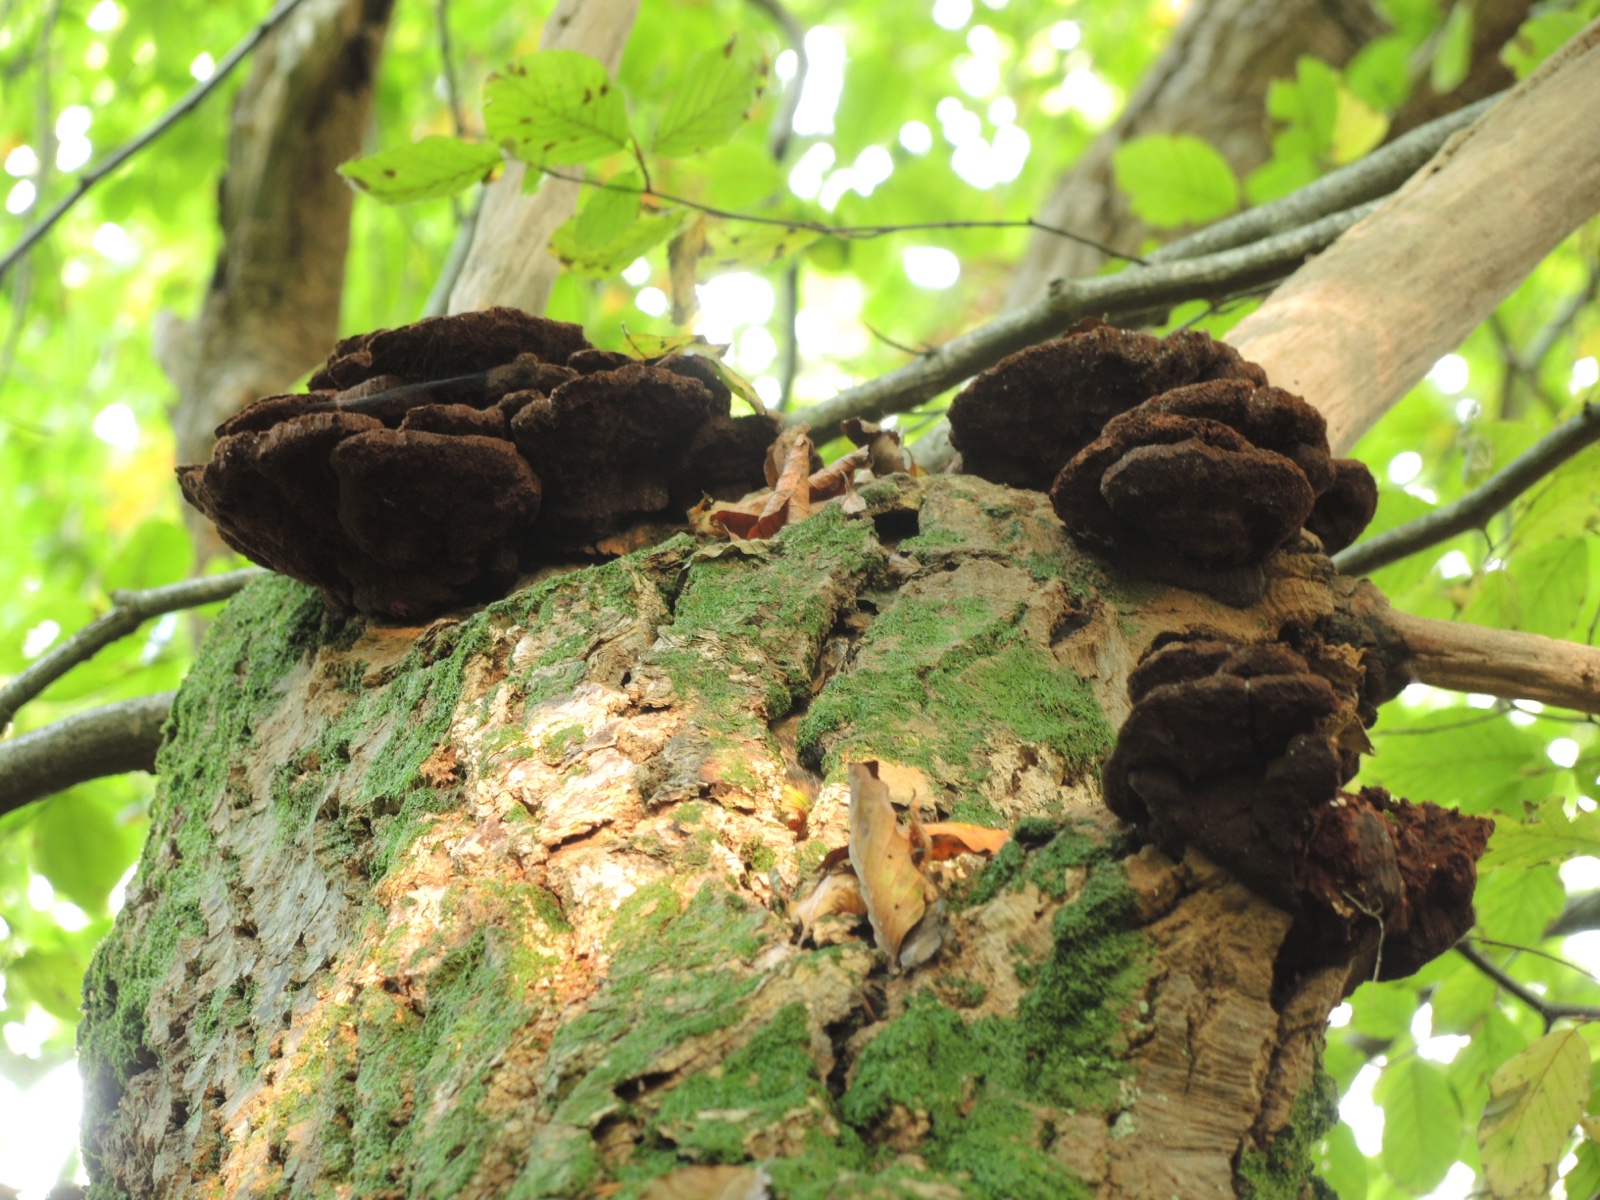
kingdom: Fungi
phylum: Basidiomycota
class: Agaricomycetes
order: Hymenochaetales
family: Hymenochaetaceae
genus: Inocutis
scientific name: Inocutis rheades
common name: ræve-spejlporesvamp
